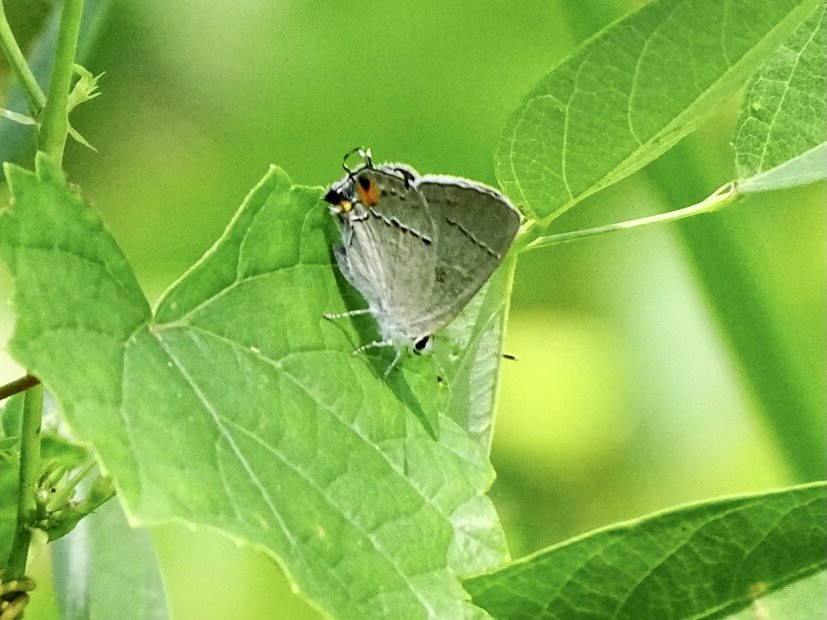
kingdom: Animalia
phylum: Arthropoda
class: Insecta
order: Lepidoptera
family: Lycaenidae
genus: Strymon
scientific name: Strymon melinus
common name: Gray Hairstreak
